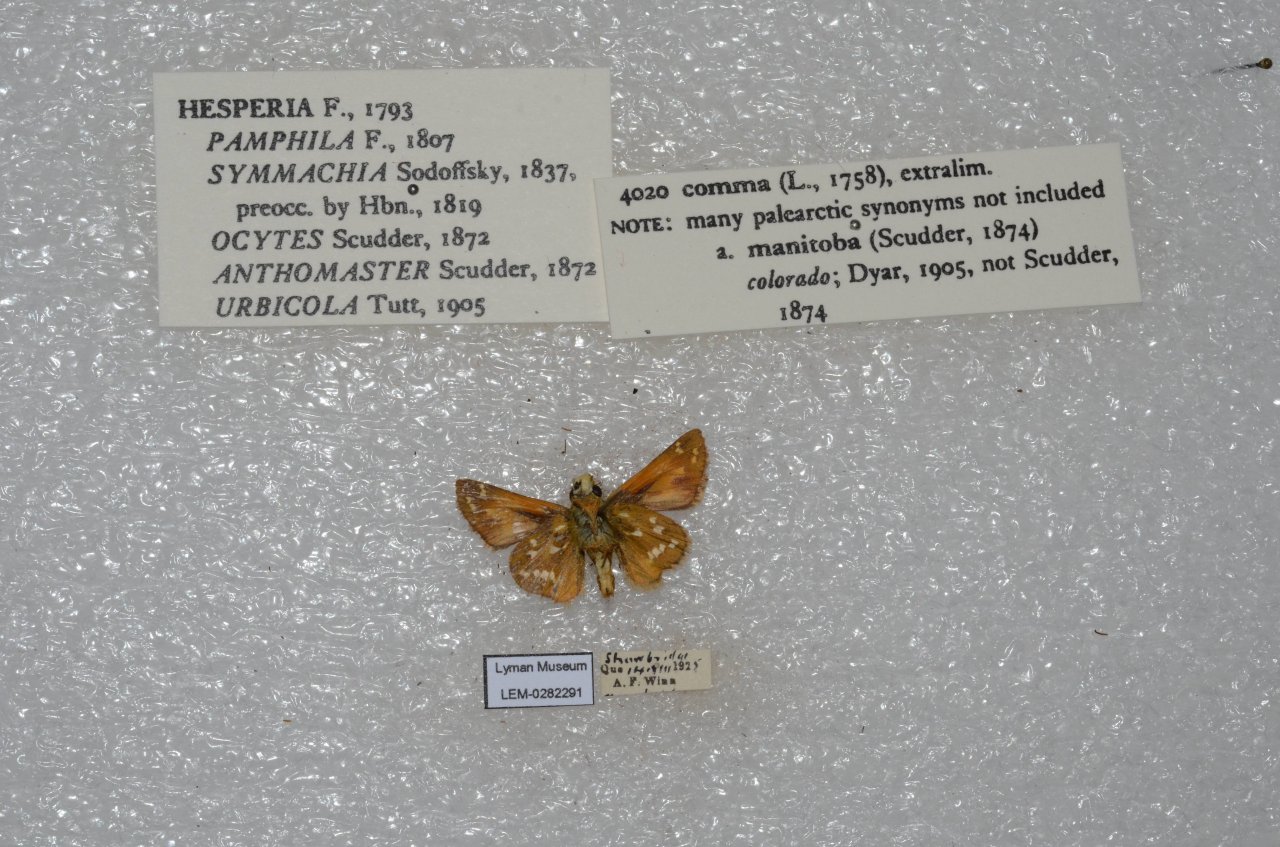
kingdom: Animalia
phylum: Arthropoda
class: Insecta
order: Lepidoptera
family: Hesperiidae
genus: Hesperia
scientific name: Hesperia comma
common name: Common Branded Skipper
